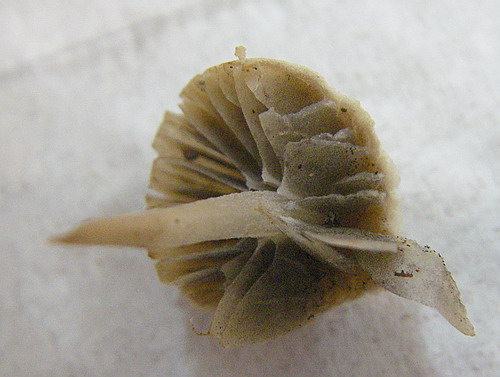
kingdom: Fungi
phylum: Basidiomycota
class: Agaricomycetes
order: Agaricales
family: Psathyrellaceae
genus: Psathyrella
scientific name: Psathyrella potteri
